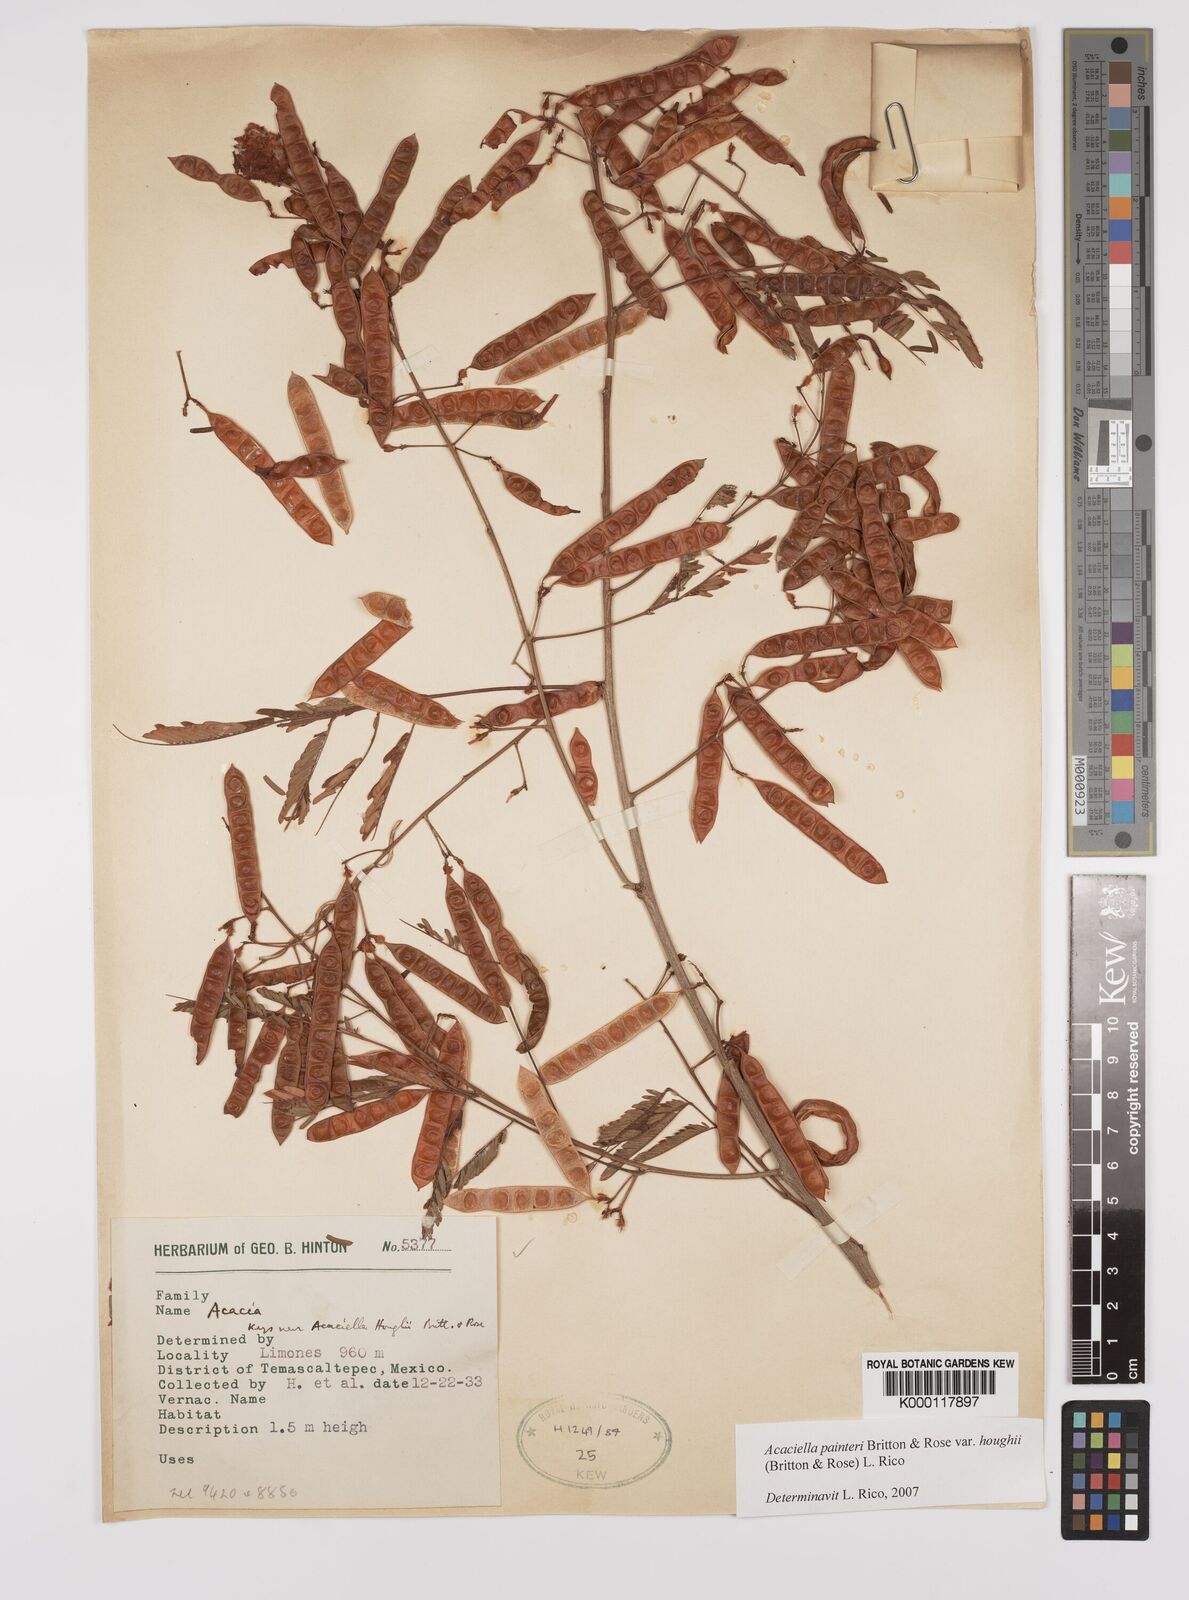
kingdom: Plantae
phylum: Tracheophyta
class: Magnoliopsida
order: Fabales
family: Fabaceae
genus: Acaciella
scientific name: Acaciella painteri
